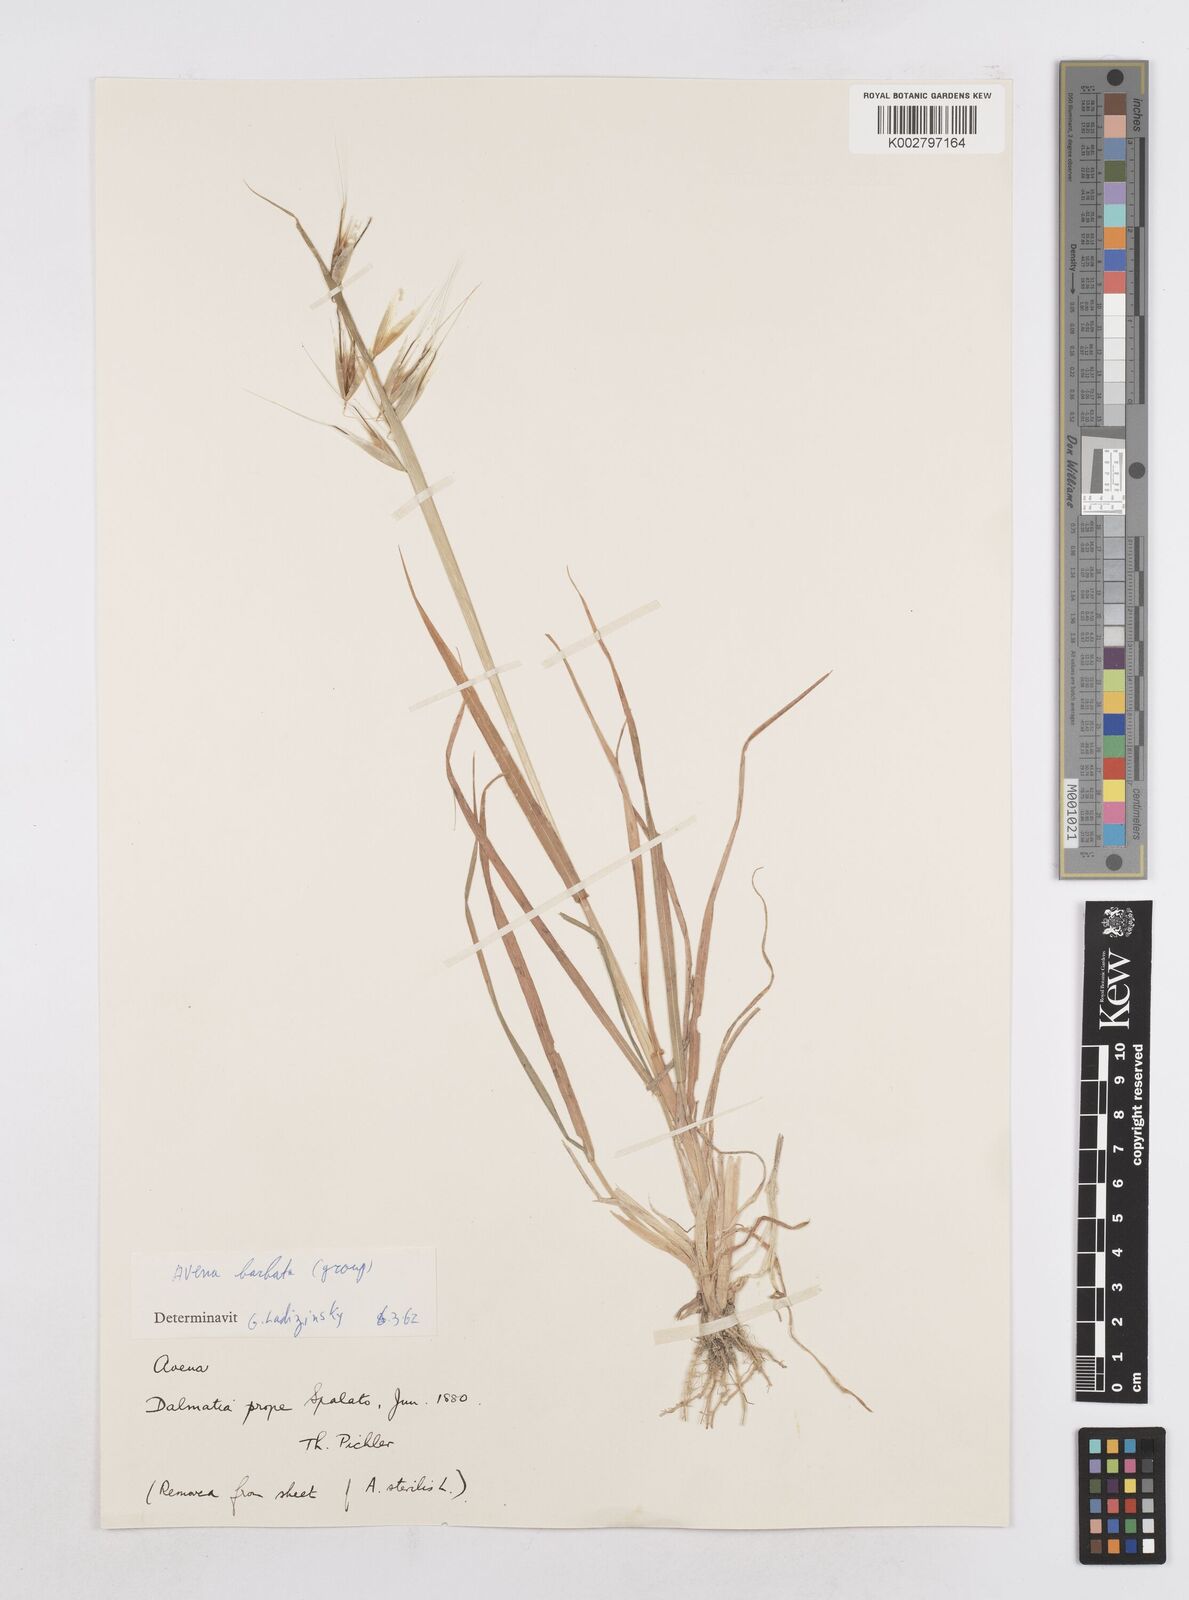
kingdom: Plantae
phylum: Tracheophyta
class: Liliopsida
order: Poales
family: Poaceae
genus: Avena
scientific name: Avena
